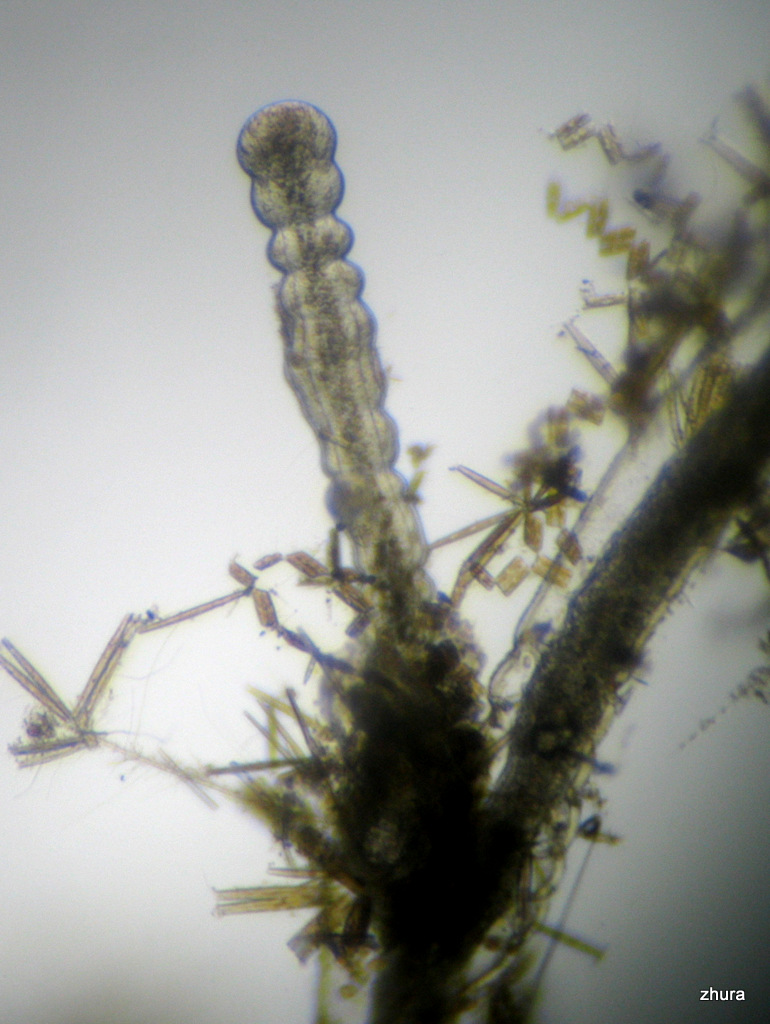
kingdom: Animalia
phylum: Cnidaria
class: Hydrozoa
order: Leptothecata
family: Campanulariidae
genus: Gonothyraea
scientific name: Gonothyraea loveni
